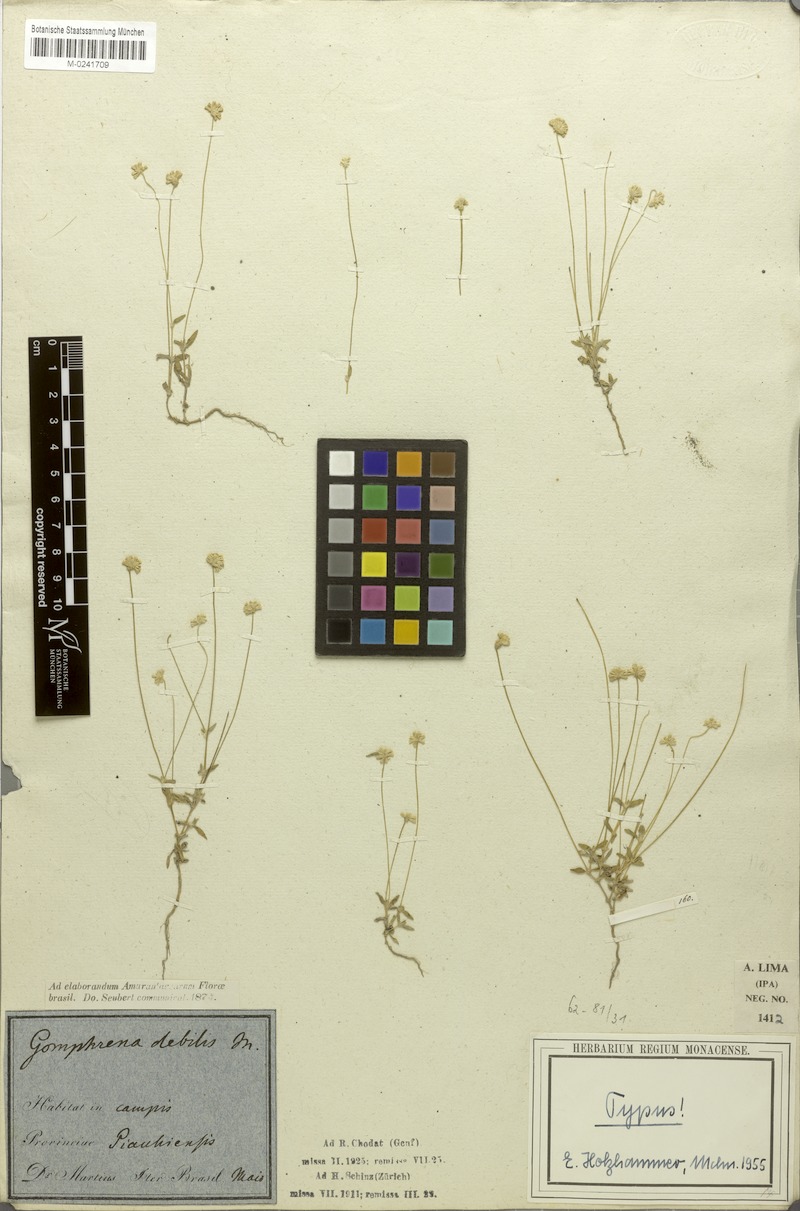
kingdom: Plantae
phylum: Tracheophyta
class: Magnoliopsida
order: Caryophyllales
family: Amaranthaceae
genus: Gomphrena
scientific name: Gomphrena debilis
